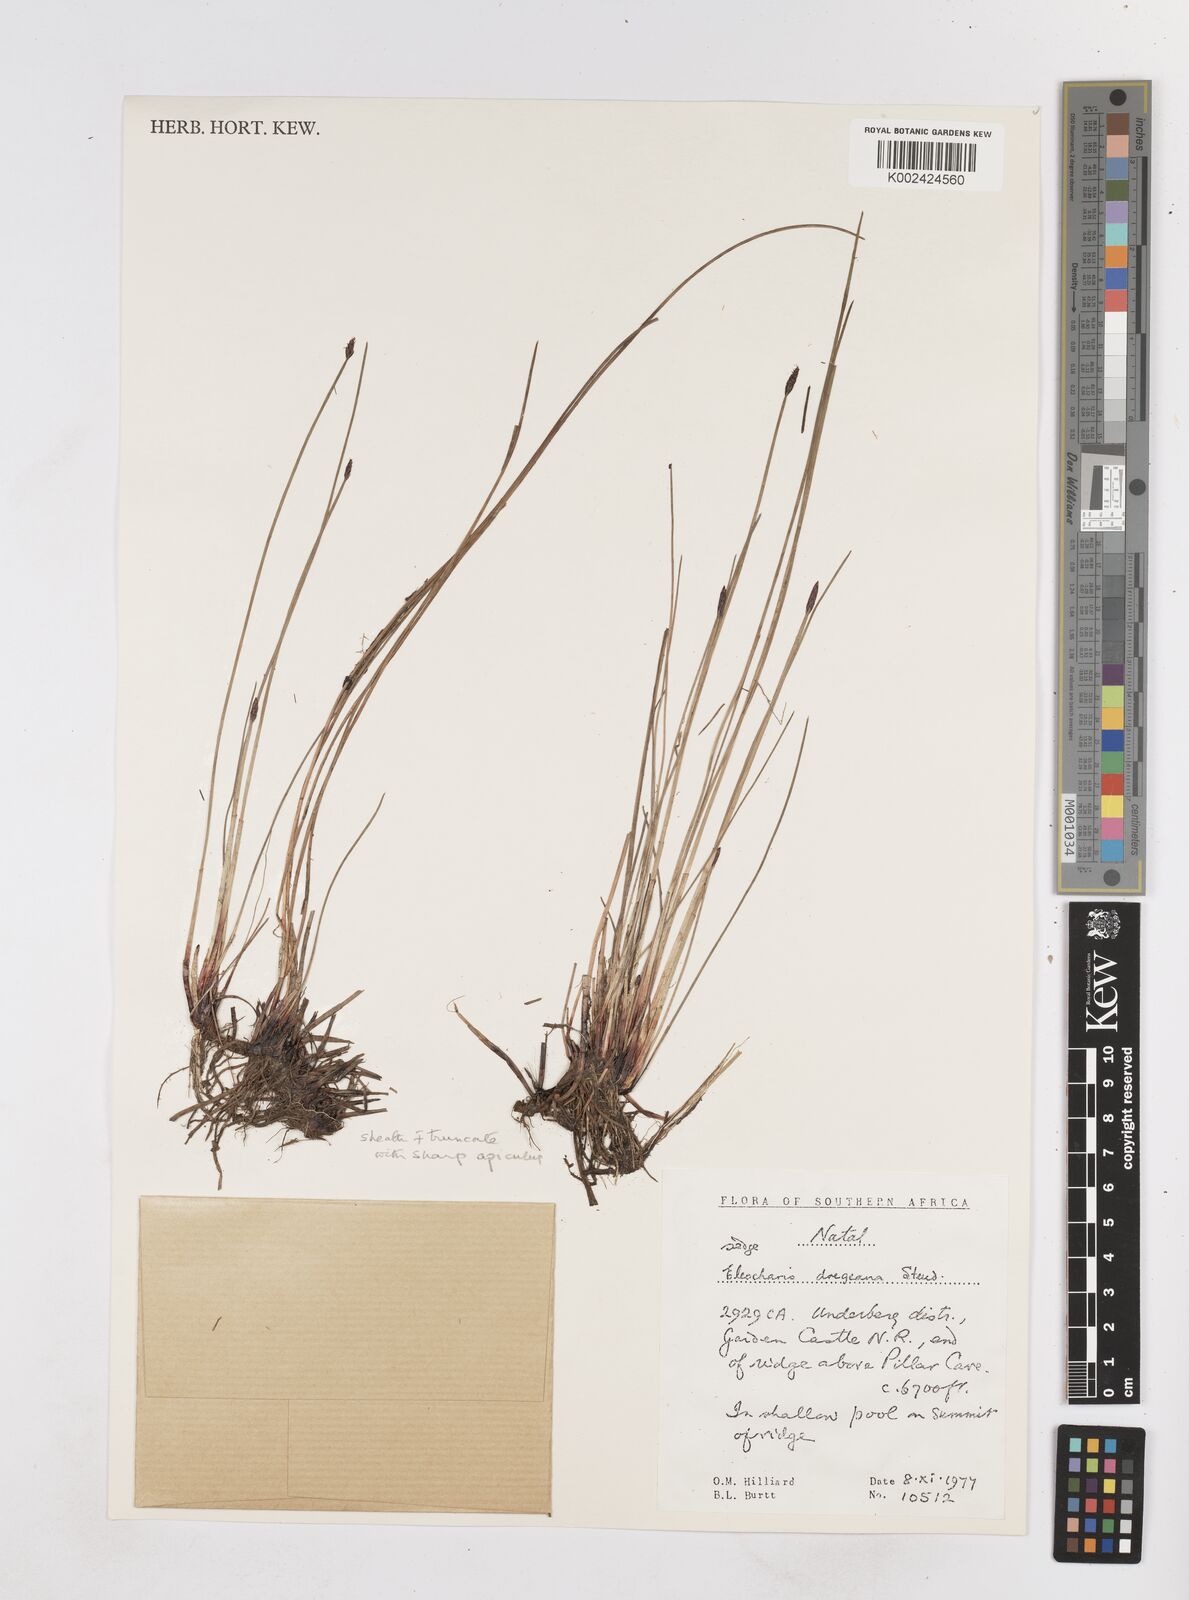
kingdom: Plantae
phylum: Tracheophyta
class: Liliopsida
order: Poales
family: Cyperaceae
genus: Eleocharis
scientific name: Eleocharis
